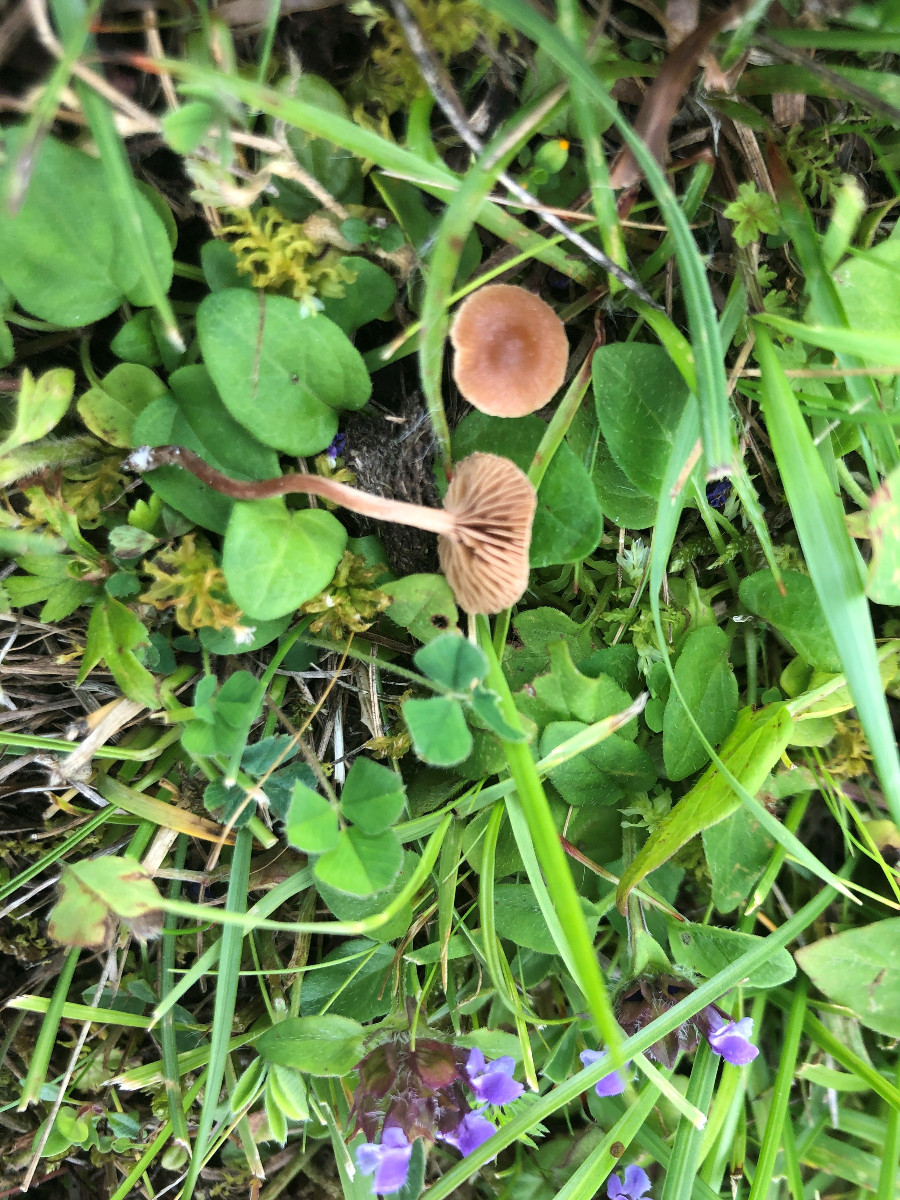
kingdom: Fungi
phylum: Basidiomycota
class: Agaricomycetes
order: Agaricales
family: Strophariaceae
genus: Deconica
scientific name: Deconica
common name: stråhat
